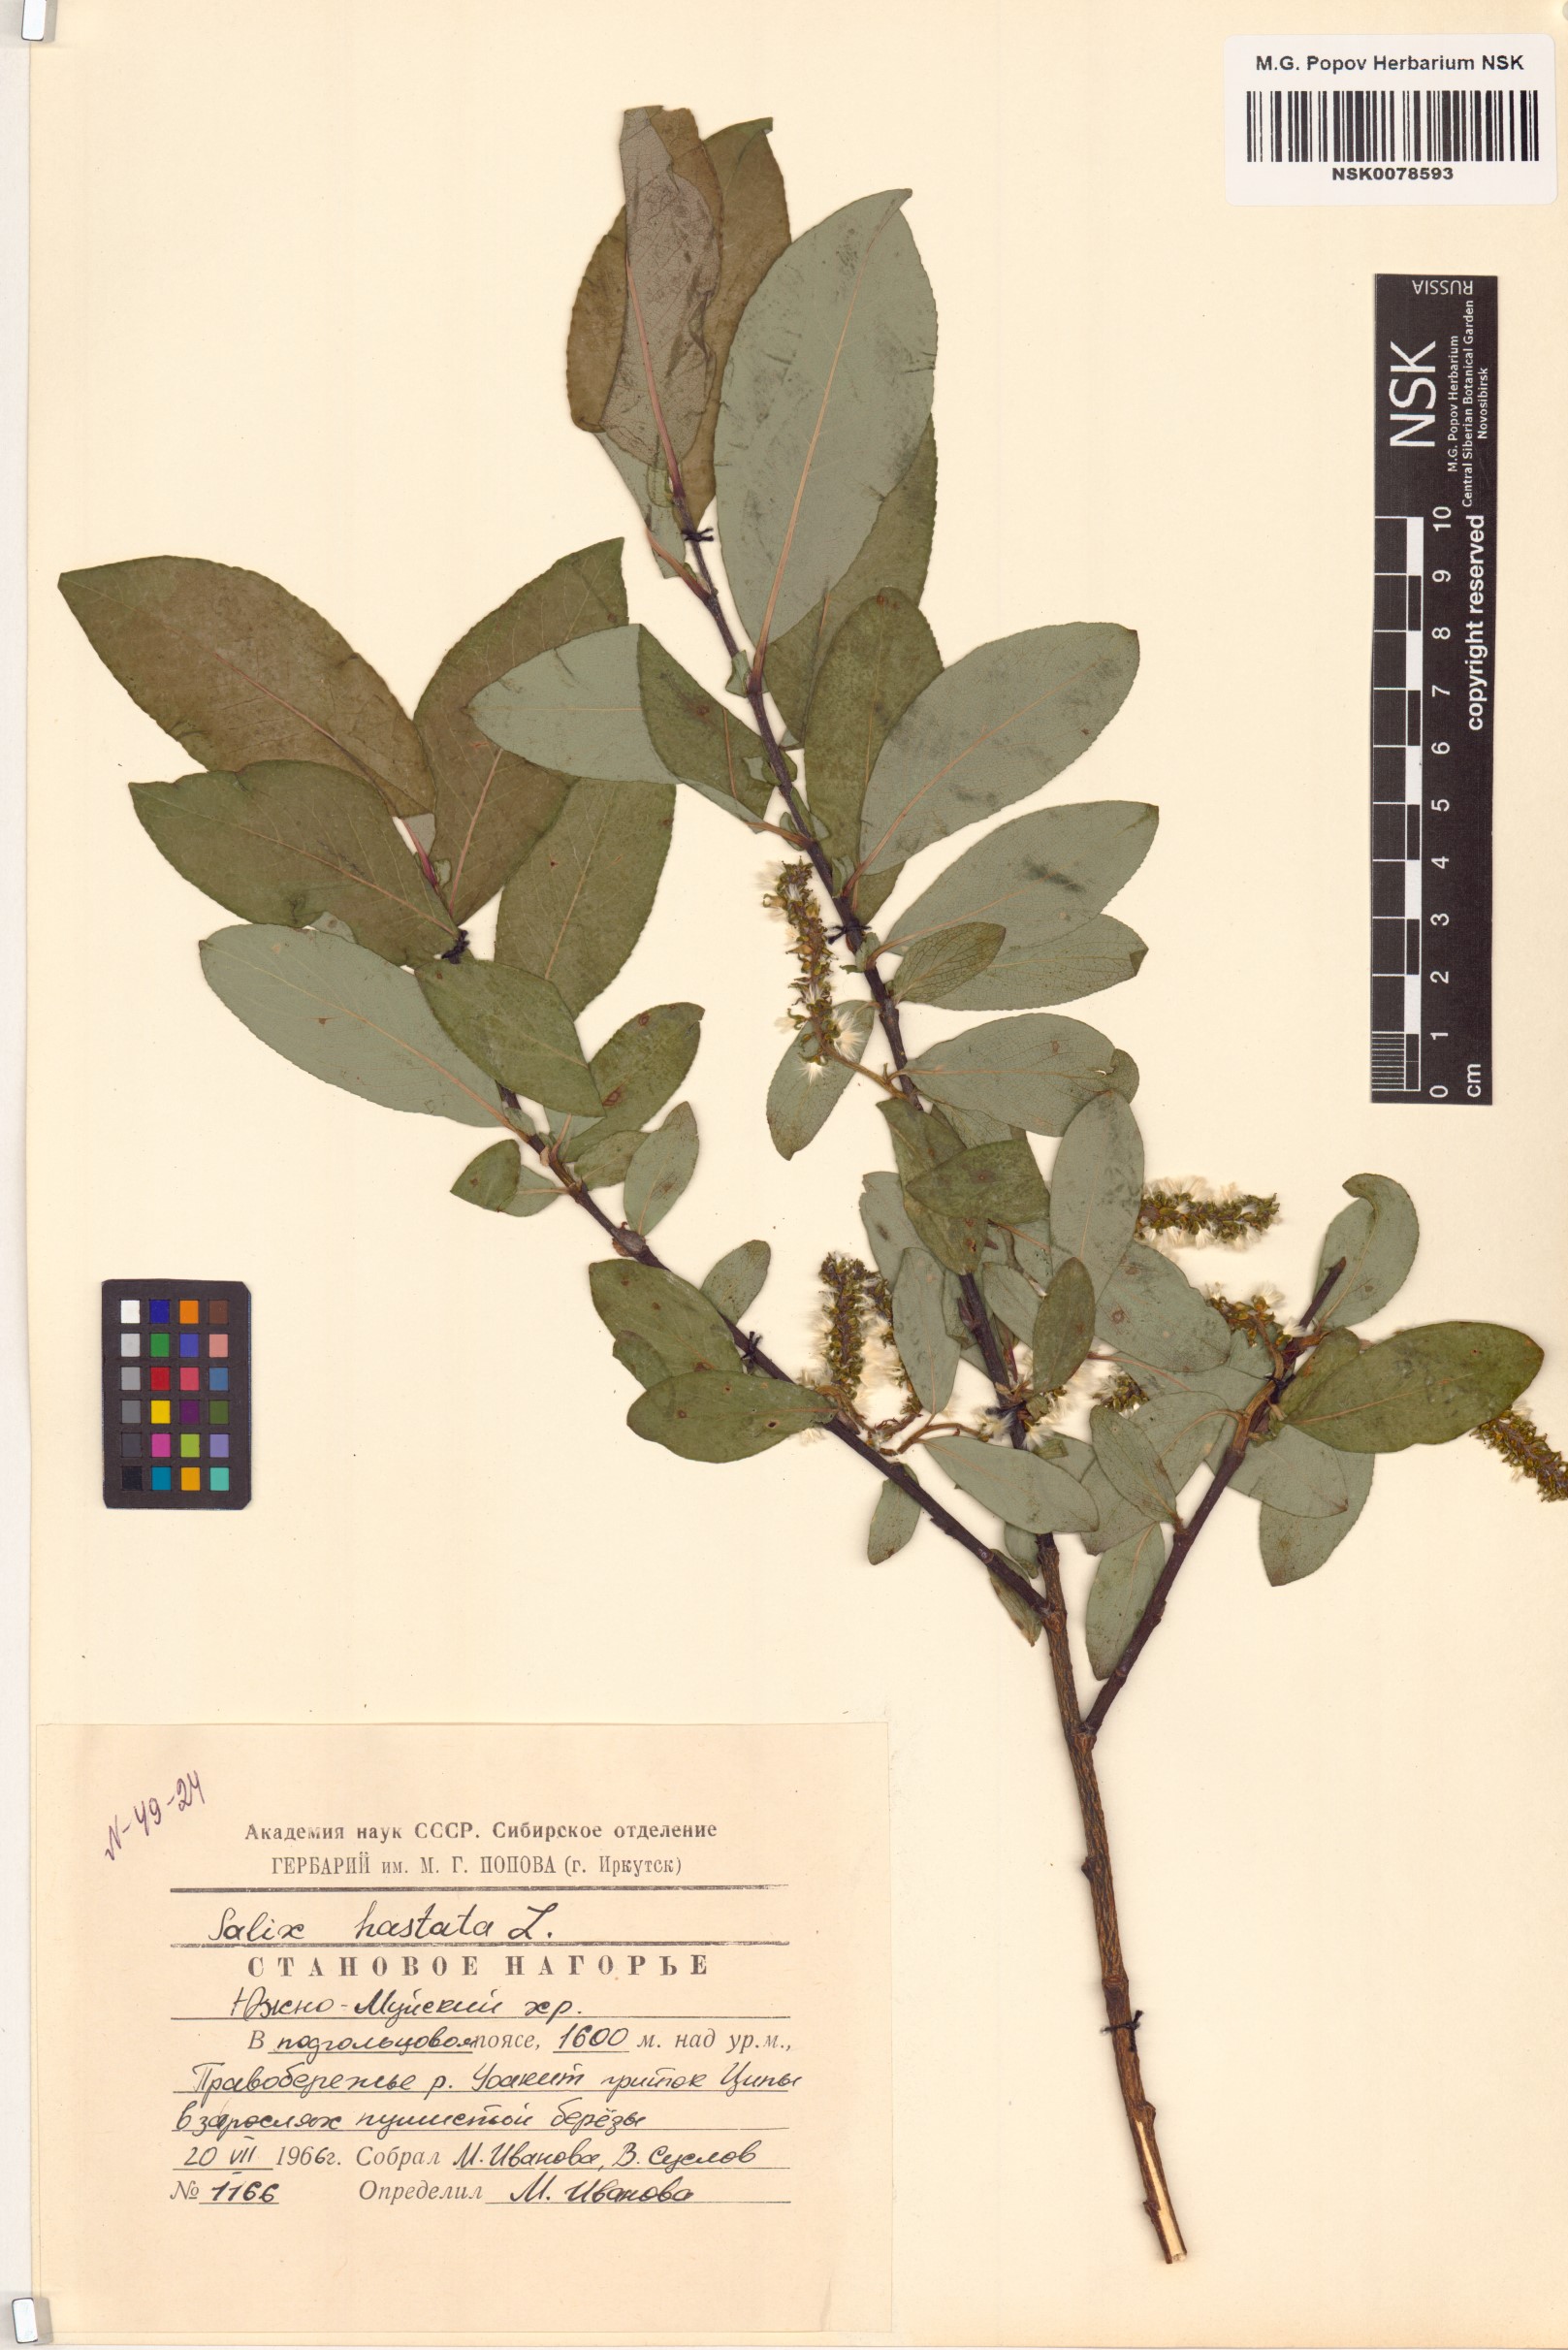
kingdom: Plantae
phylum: Tracheophyta
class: Magnoliopsida
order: Malpighiales
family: Salicaceae
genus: Salix
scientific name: Salix hastata
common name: Halberd willow
